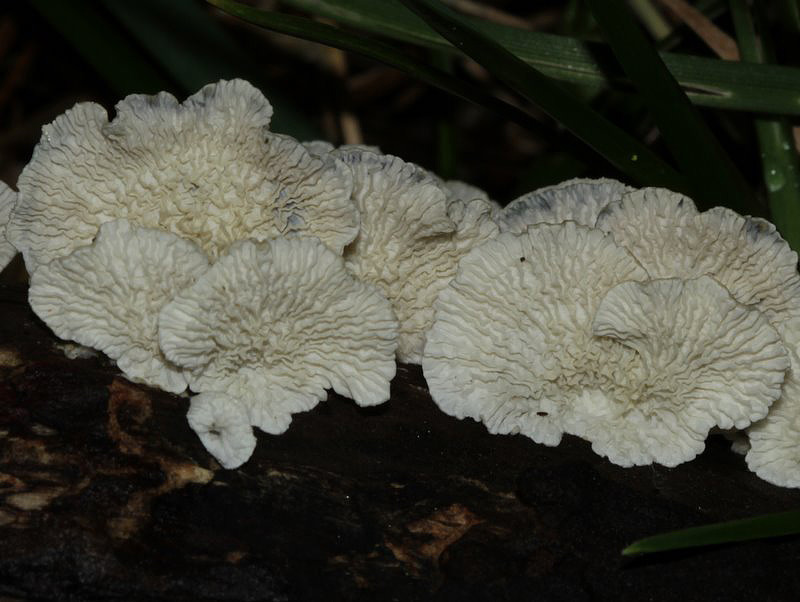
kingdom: Fungi
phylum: Basidiomycota
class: Agaricomycetes
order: Amylocorticiales
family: Amylocorticiaceae
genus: Plicaturopsis
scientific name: Plicaturopsis crispa
